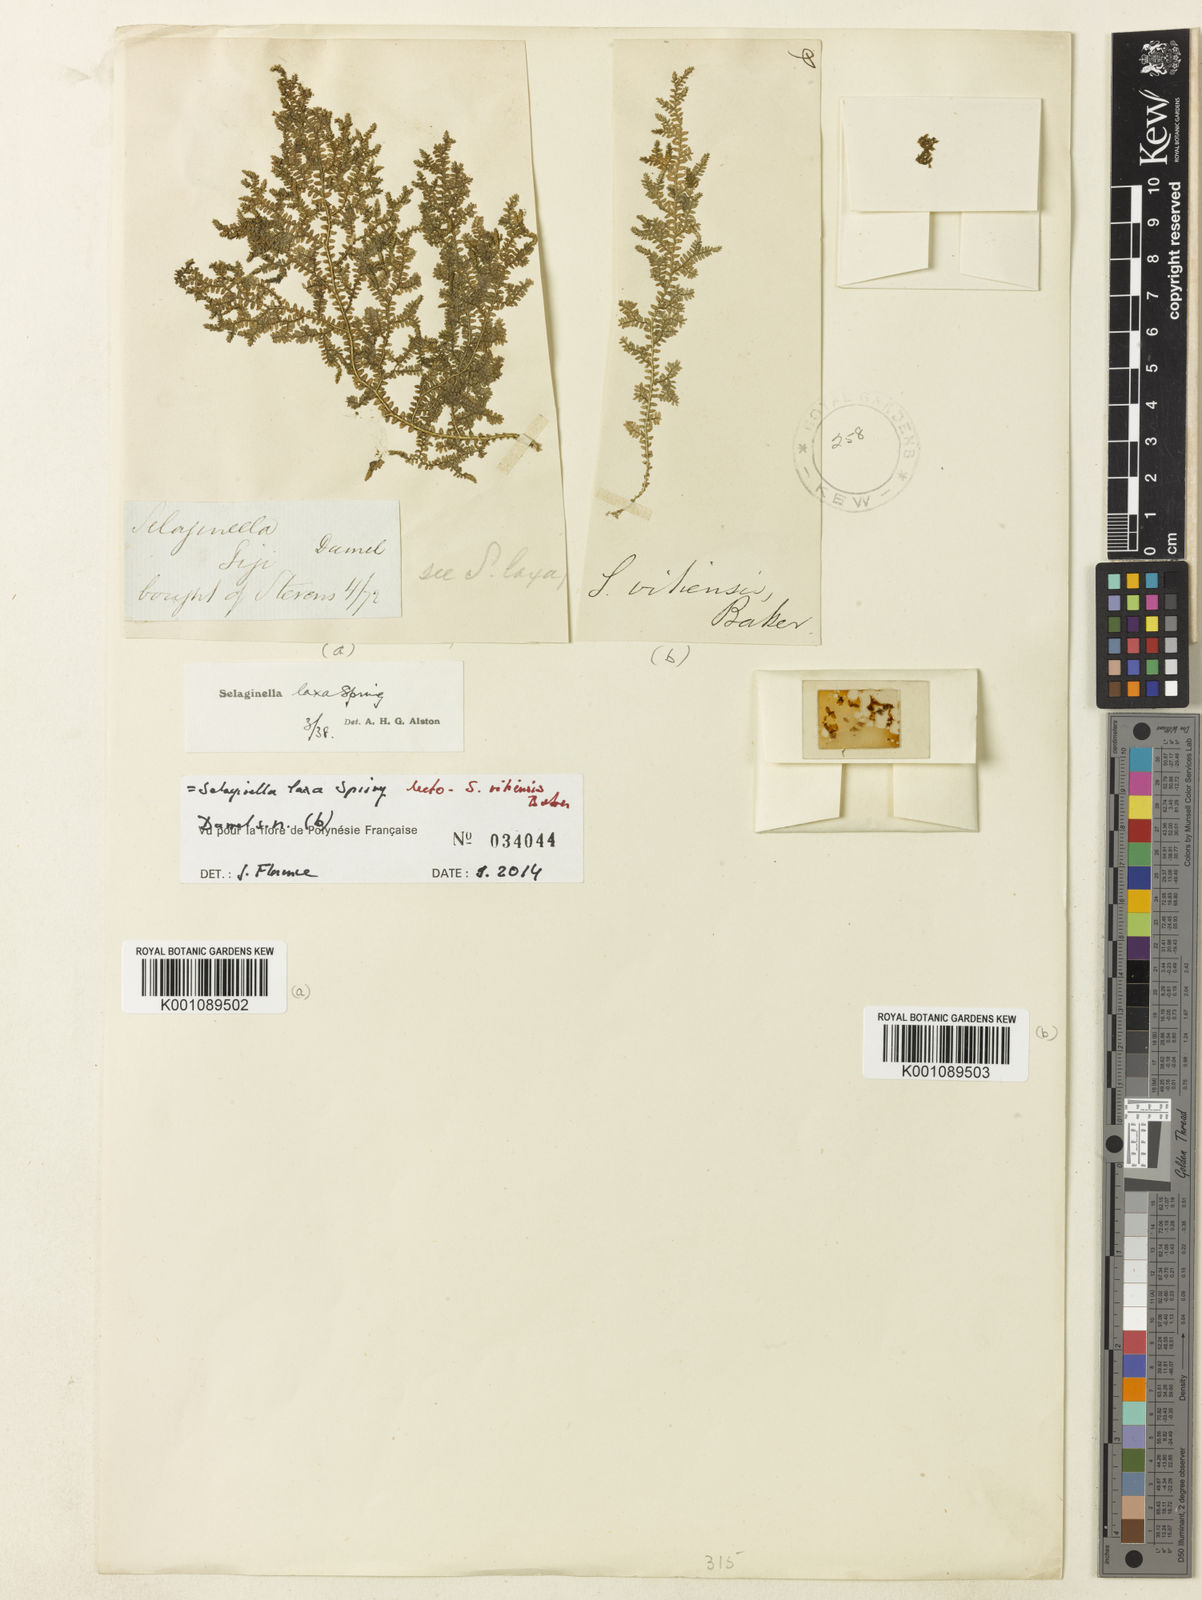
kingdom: Plantae
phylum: Tracheophyta
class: Lycopodiopsida
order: Selaginellales
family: Selaginellaceae
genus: Selaginella
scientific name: Selaginella laxa
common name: Lax spikemoss
